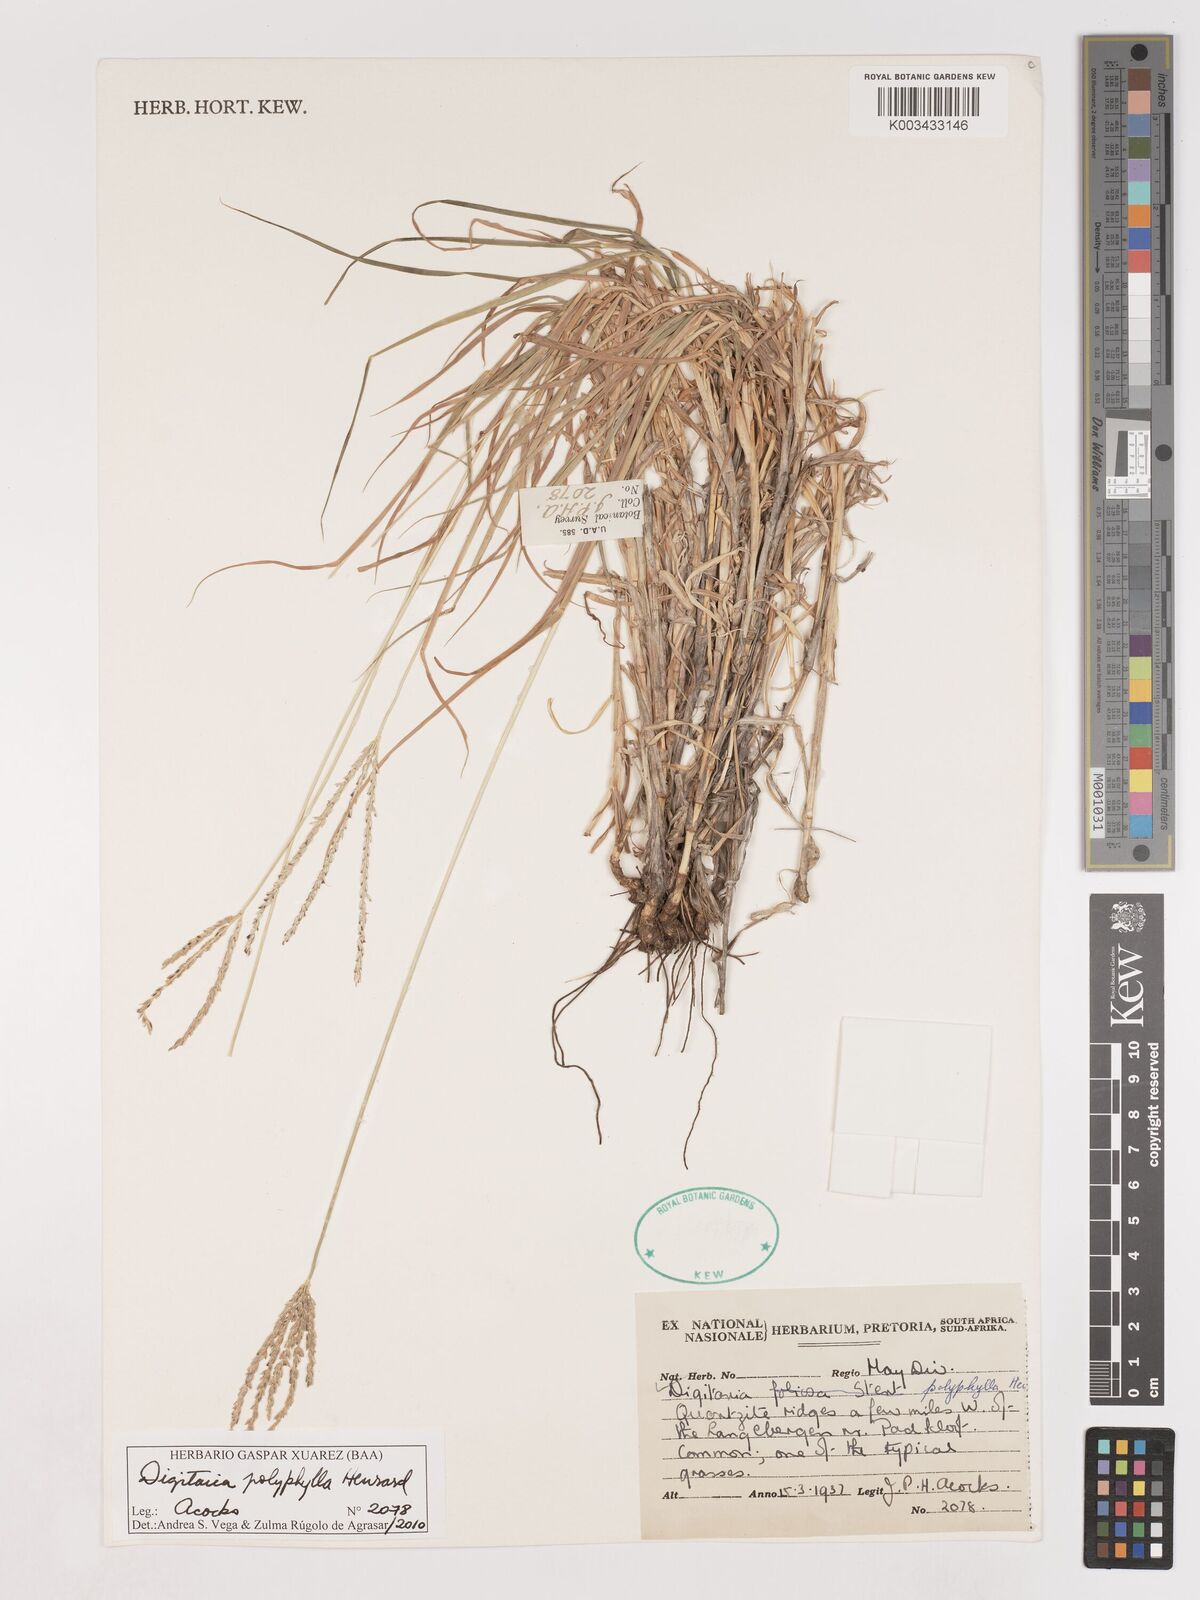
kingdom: Plantae
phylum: Tracheophyta
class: Liliopsida
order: Poales
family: Poaceae
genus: Digitaria
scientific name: Digitaria polyphylla
